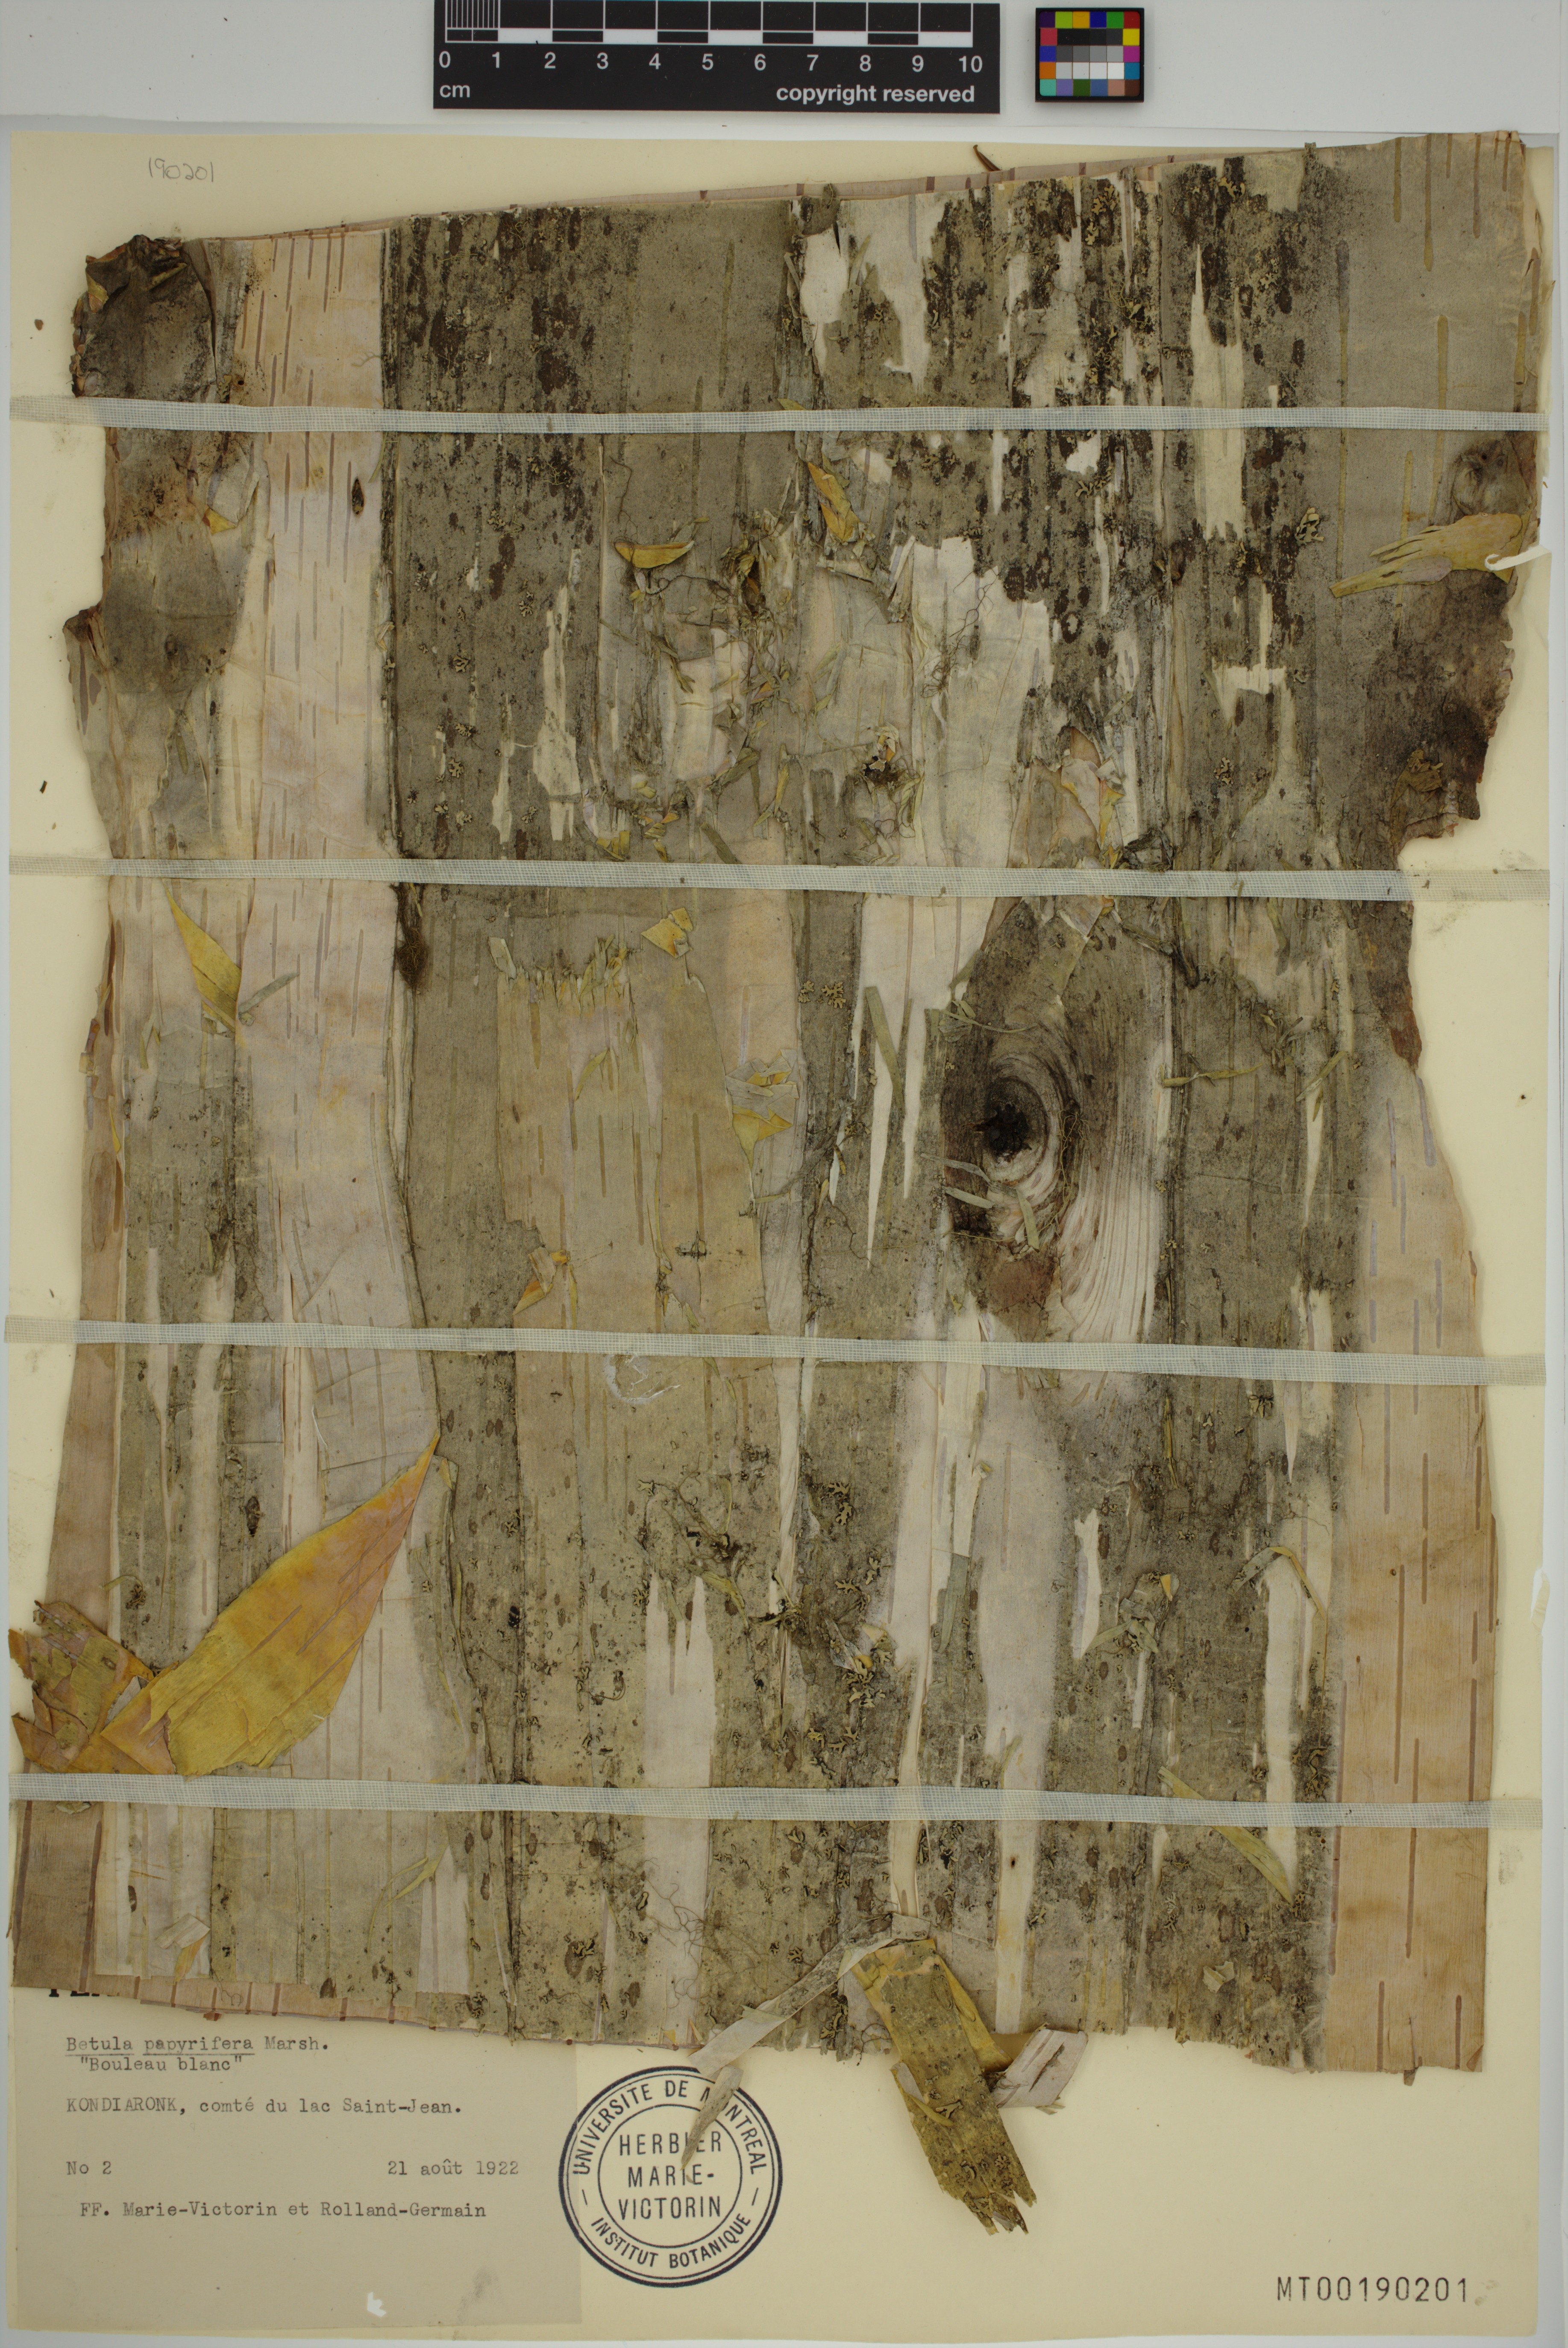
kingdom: Plantae
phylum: Tracheophyta
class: Magnoliopsida
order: Fagales
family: Betulaceae
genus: Betula
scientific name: Betula papyrifera
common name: Paper birch
